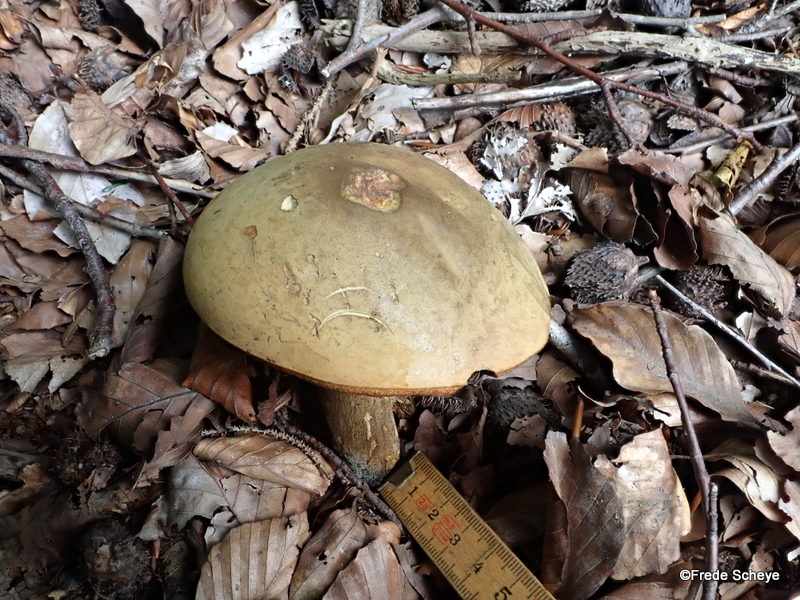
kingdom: Fungi
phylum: Basidiomycota
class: Agaricomycetes
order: Boletales
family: Boletaceae
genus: Suillellus
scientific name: Suillellus luridus
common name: netstokket indigorørhat
